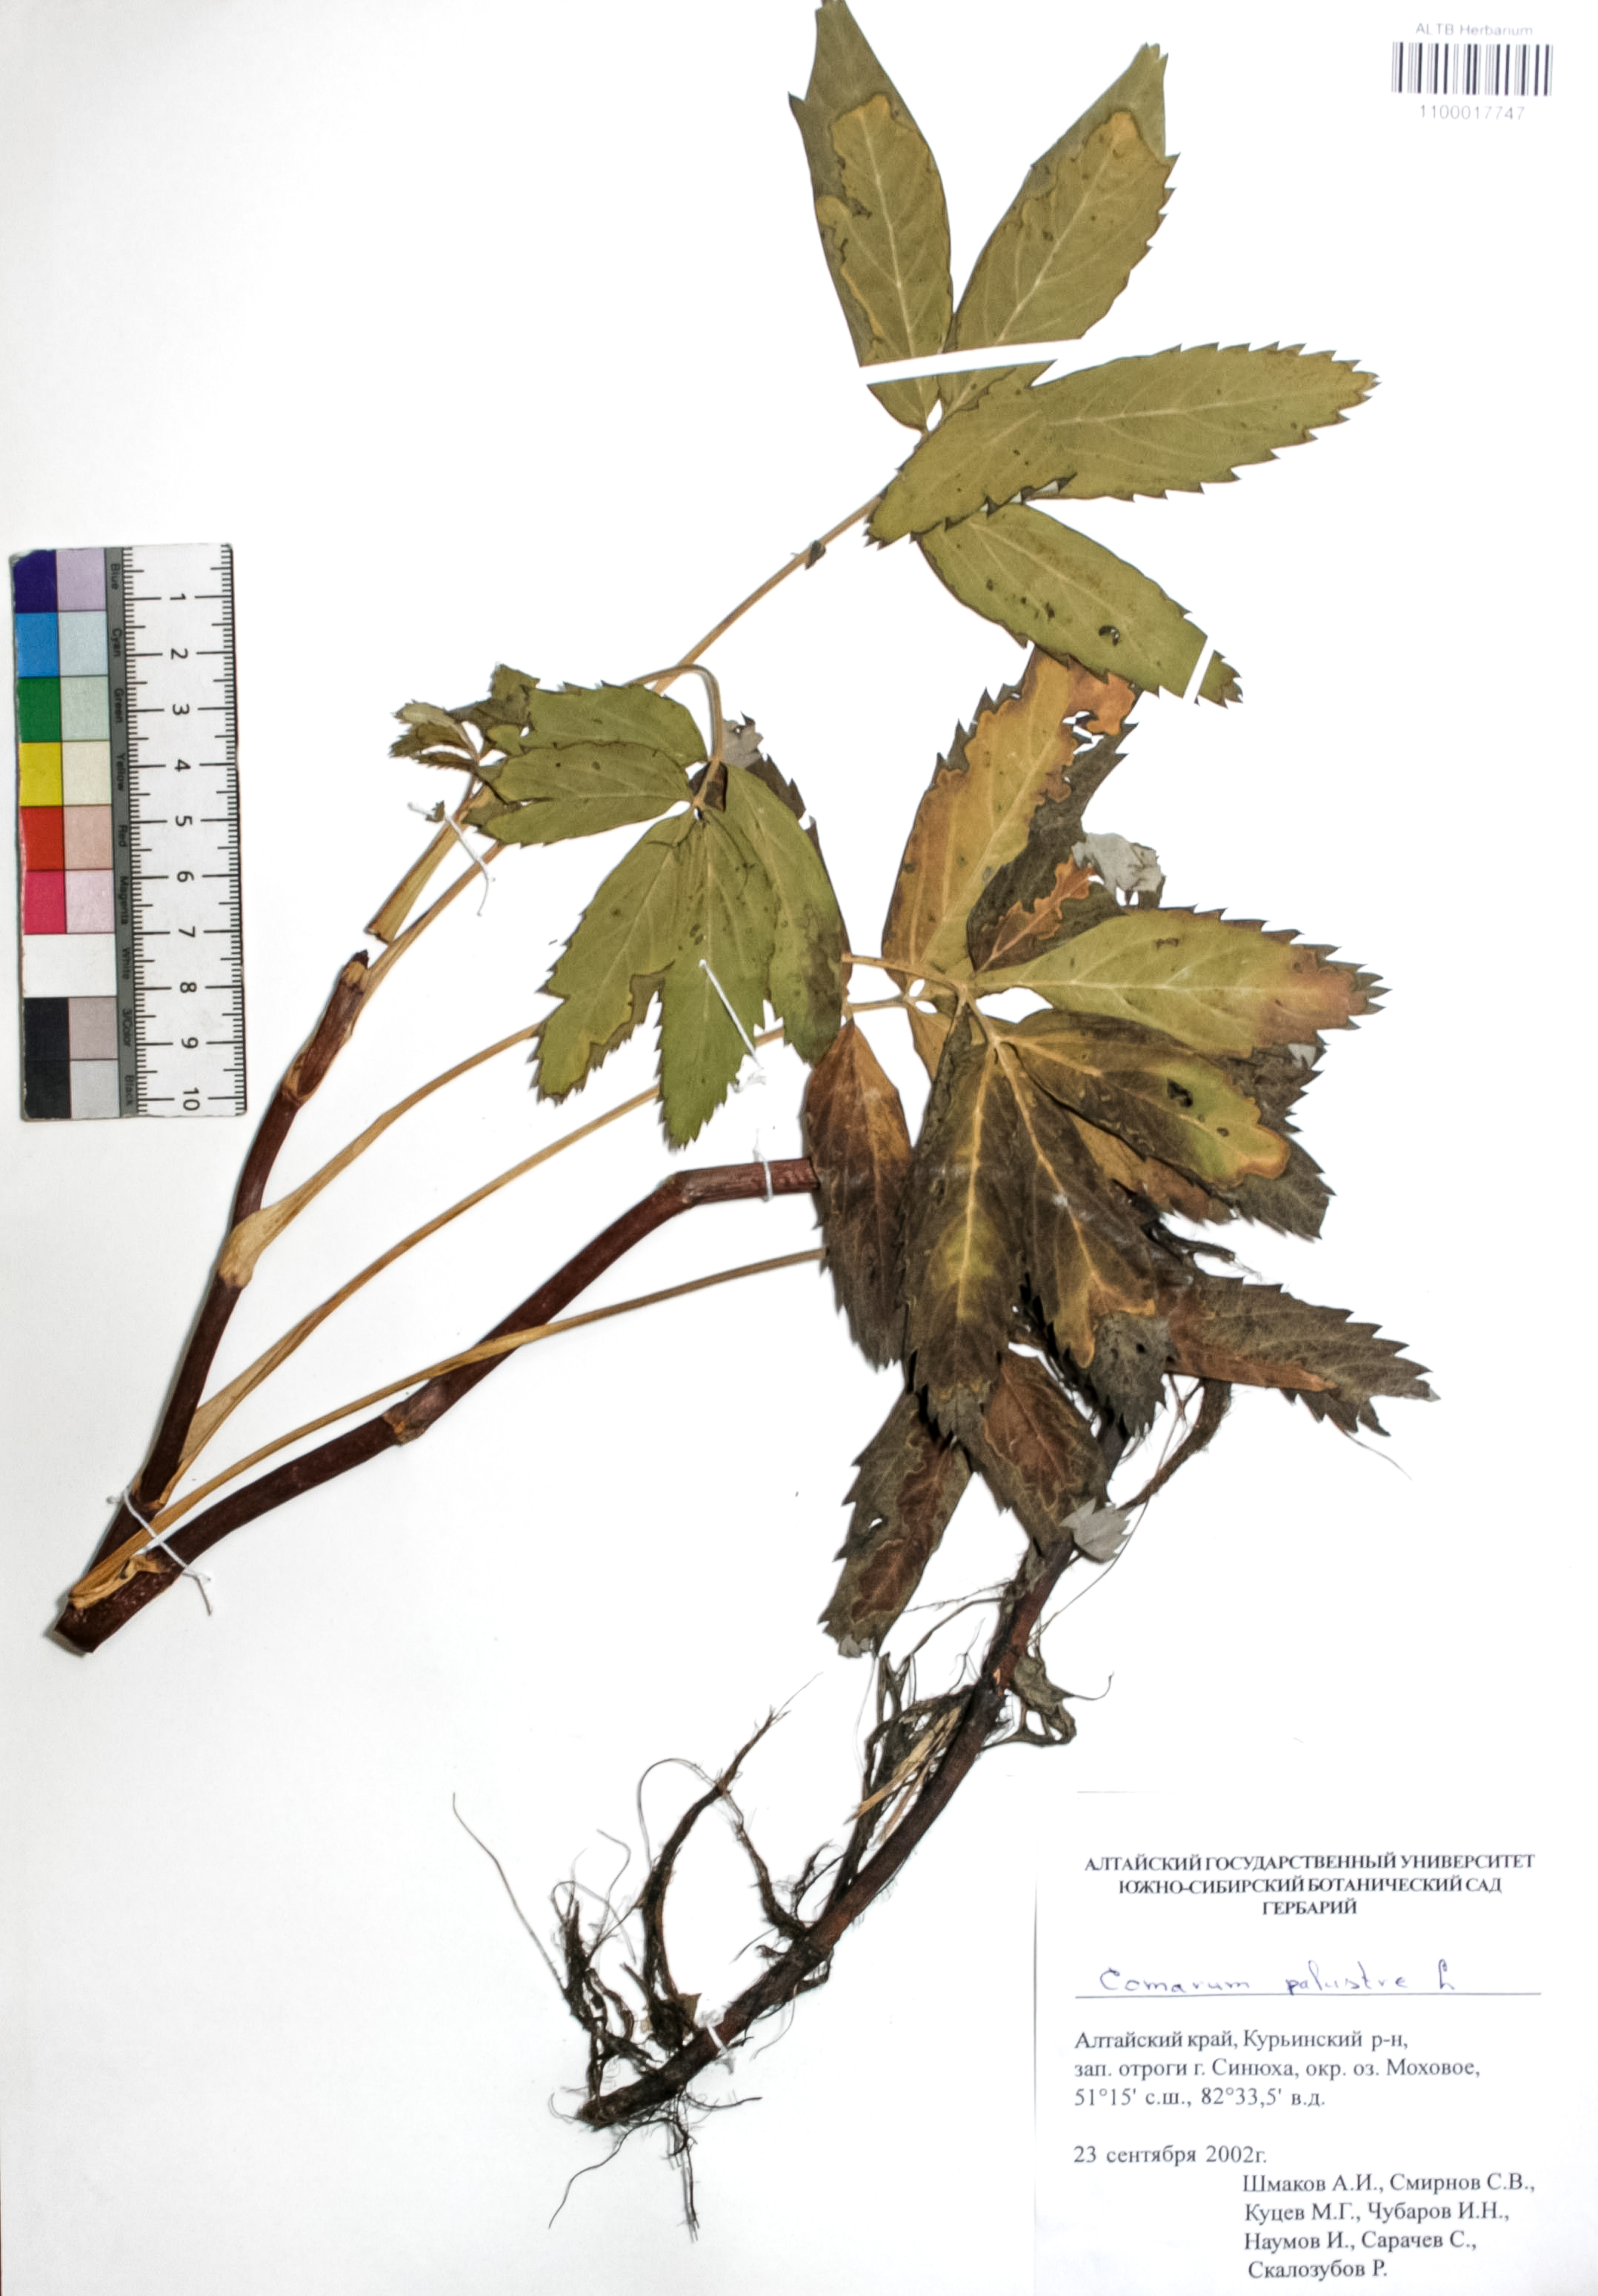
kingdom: Plantae
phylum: Tracheophyta
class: Magnoliopsida
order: Rosales
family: Rosaceae
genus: Comarum
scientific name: Comarum palustre
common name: Marsh cinquefoil
